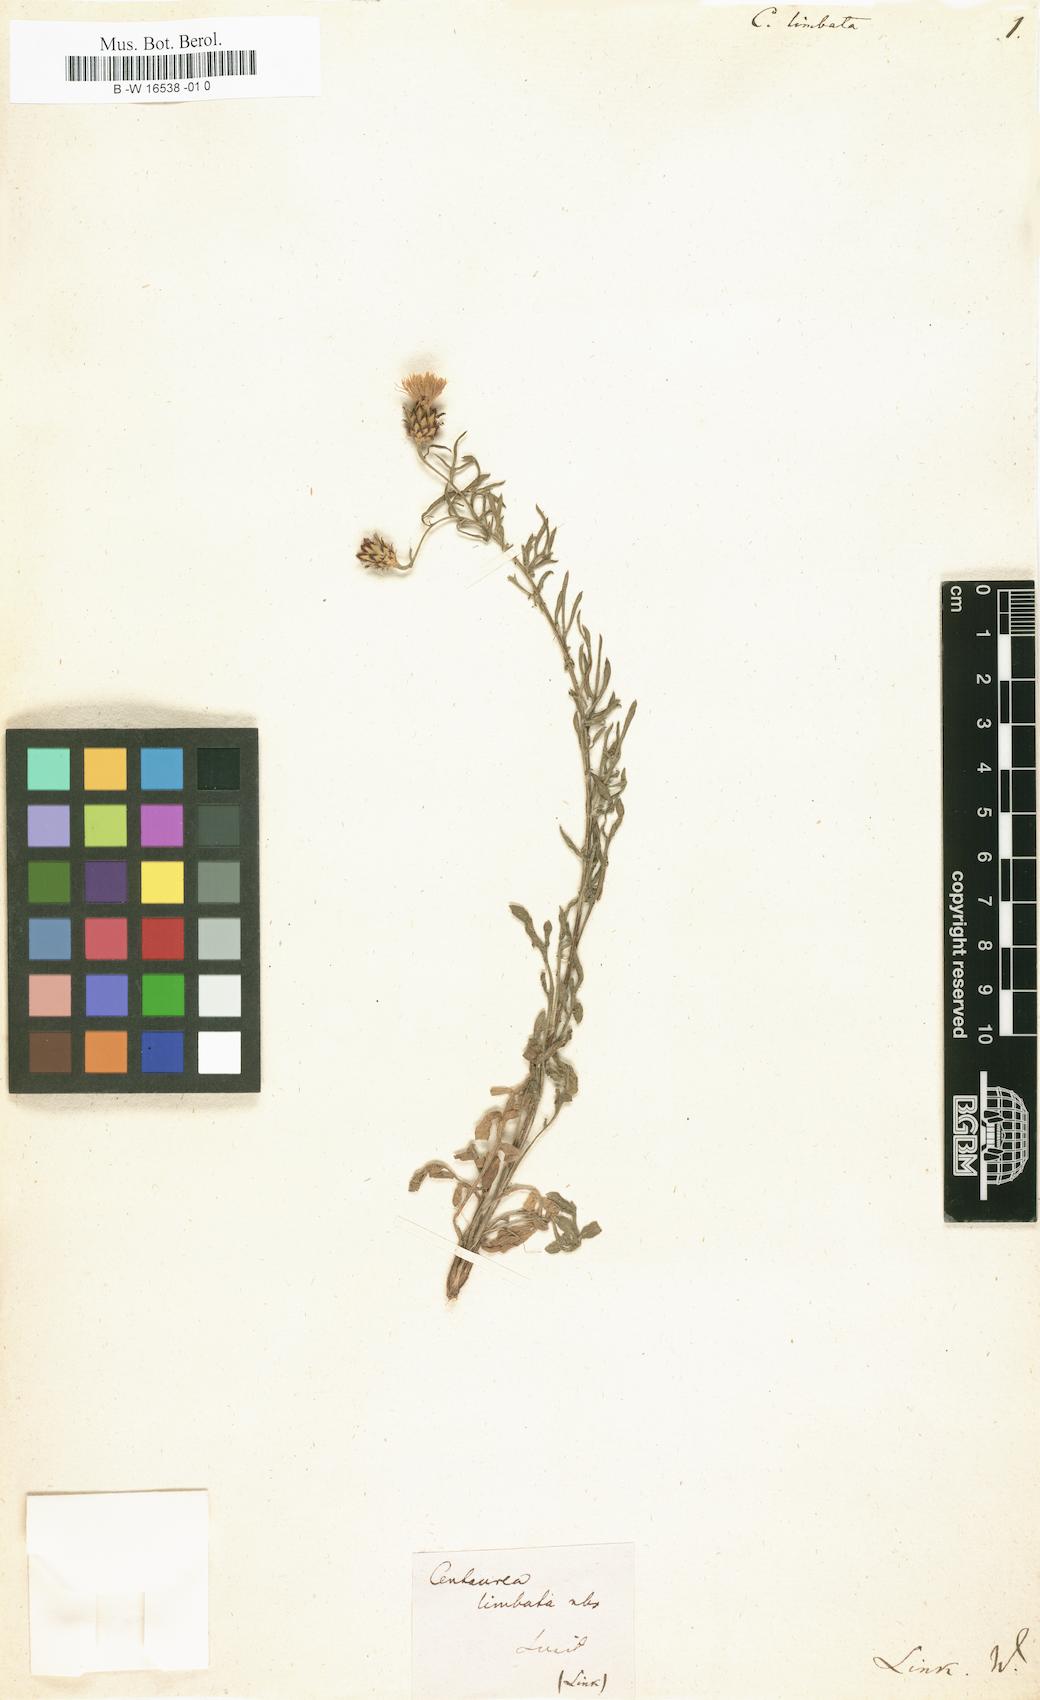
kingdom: Plantae
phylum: Tracheophyta
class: Magnoliopsida
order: Asterales
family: Asteraceae
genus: Centaurea
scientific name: Centaurea limbata
